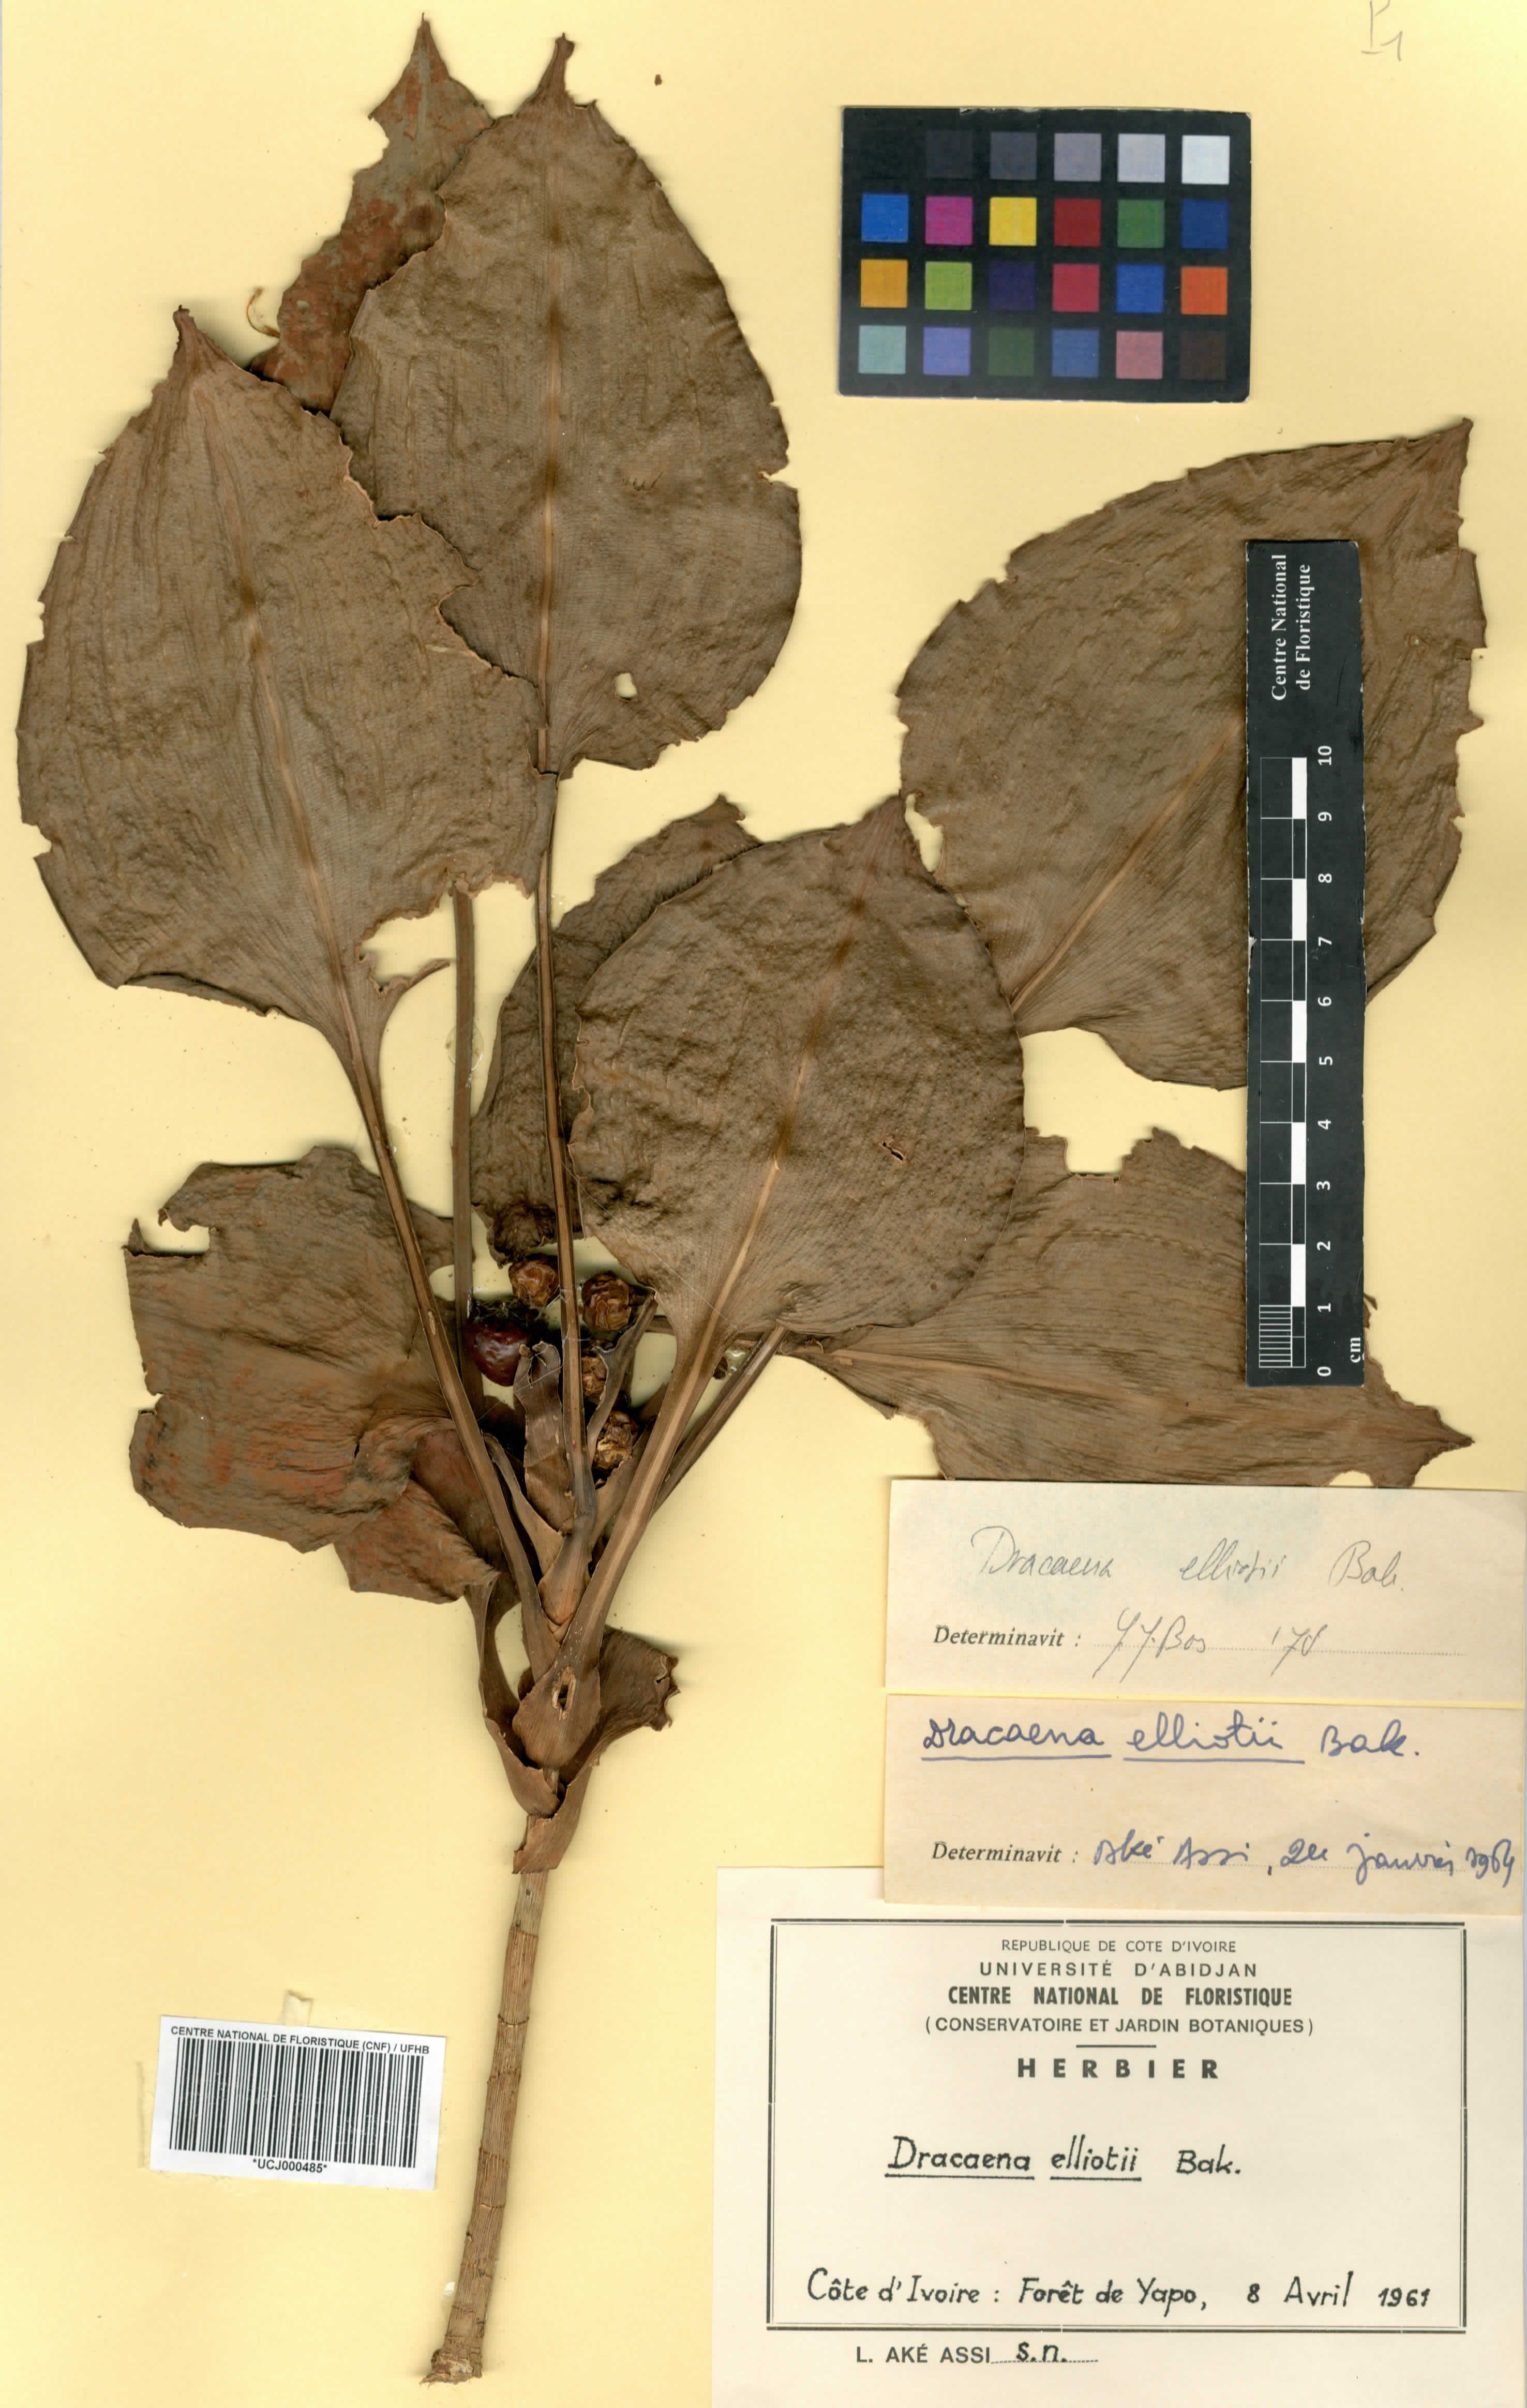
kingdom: Plantae
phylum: Tracheophyta
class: Liliopsida
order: Asparagales
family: Asparagaceae
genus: Dracaena
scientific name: Dracaena cristula
